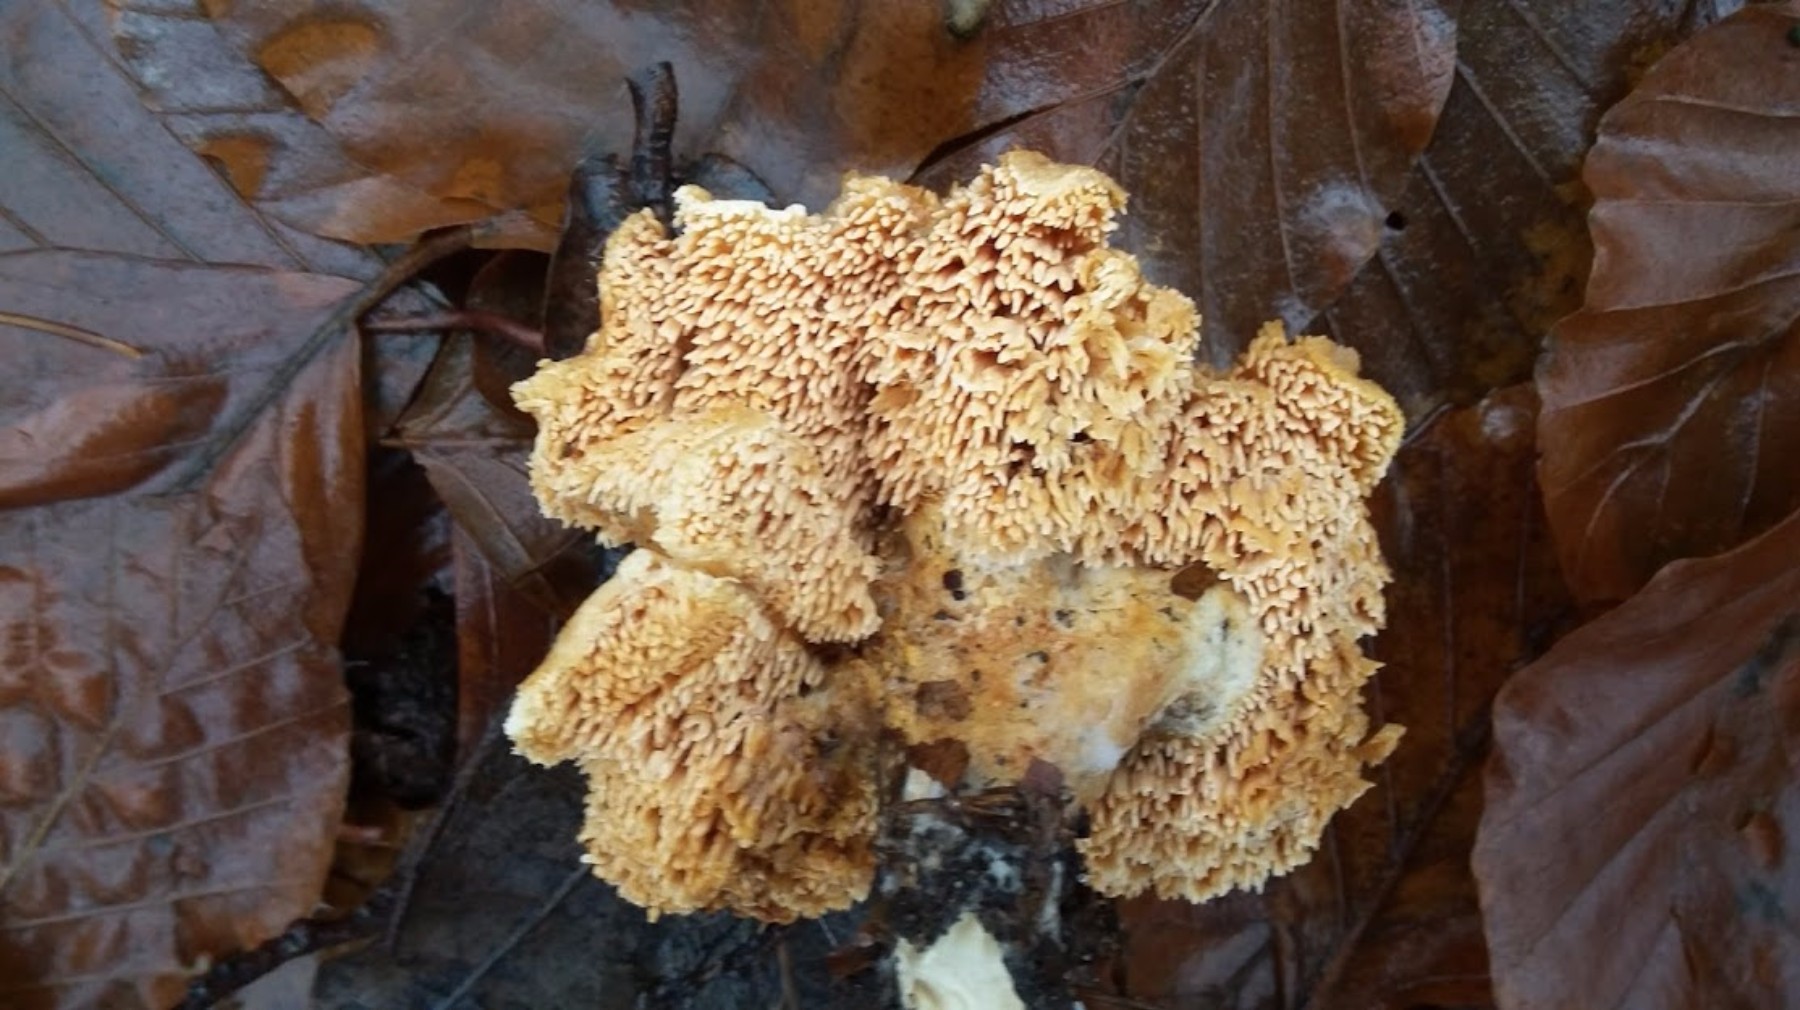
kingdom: Fungi
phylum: Basidiomycota
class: Agaricomycetes
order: Cantharellales
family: Hydnaceae
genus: Hydnum
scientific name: Hydnum
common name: pigsvamp
